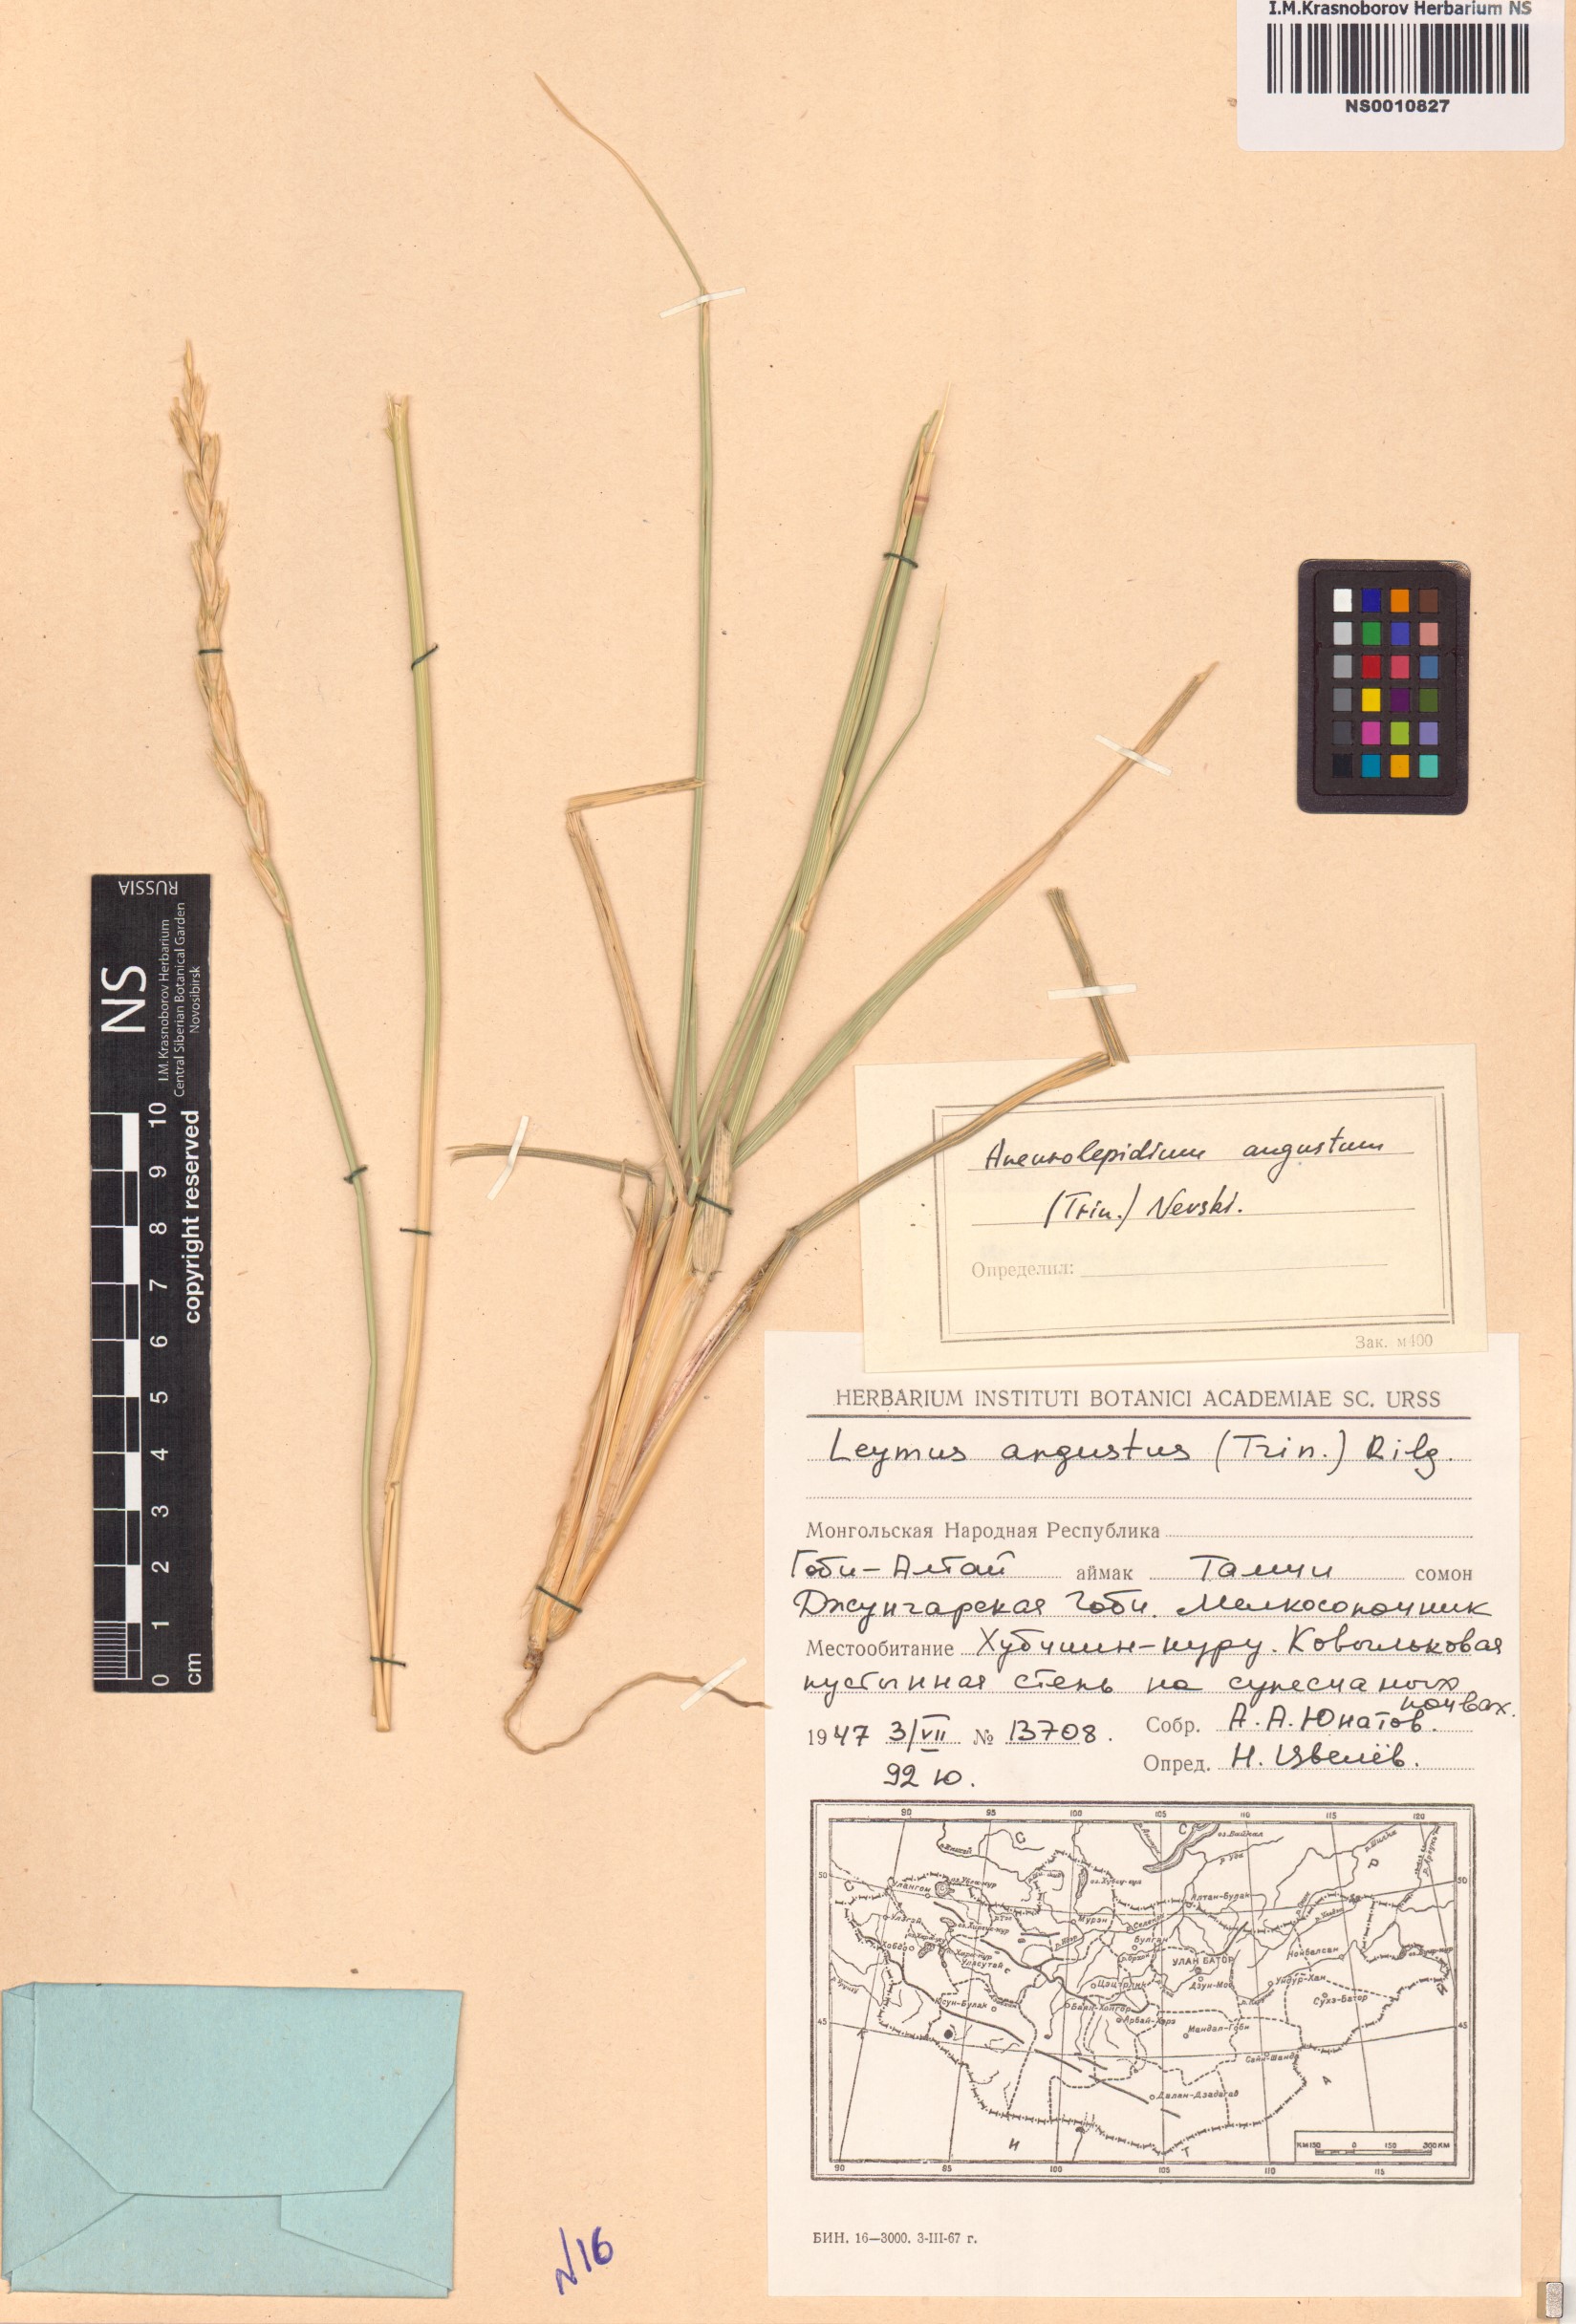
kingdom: Plantae
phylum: Tracheophyta
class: Liliopsida
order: Poales
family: Poaceae
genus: Leymus
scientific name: Leymus angustus
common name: Altai wildrye
